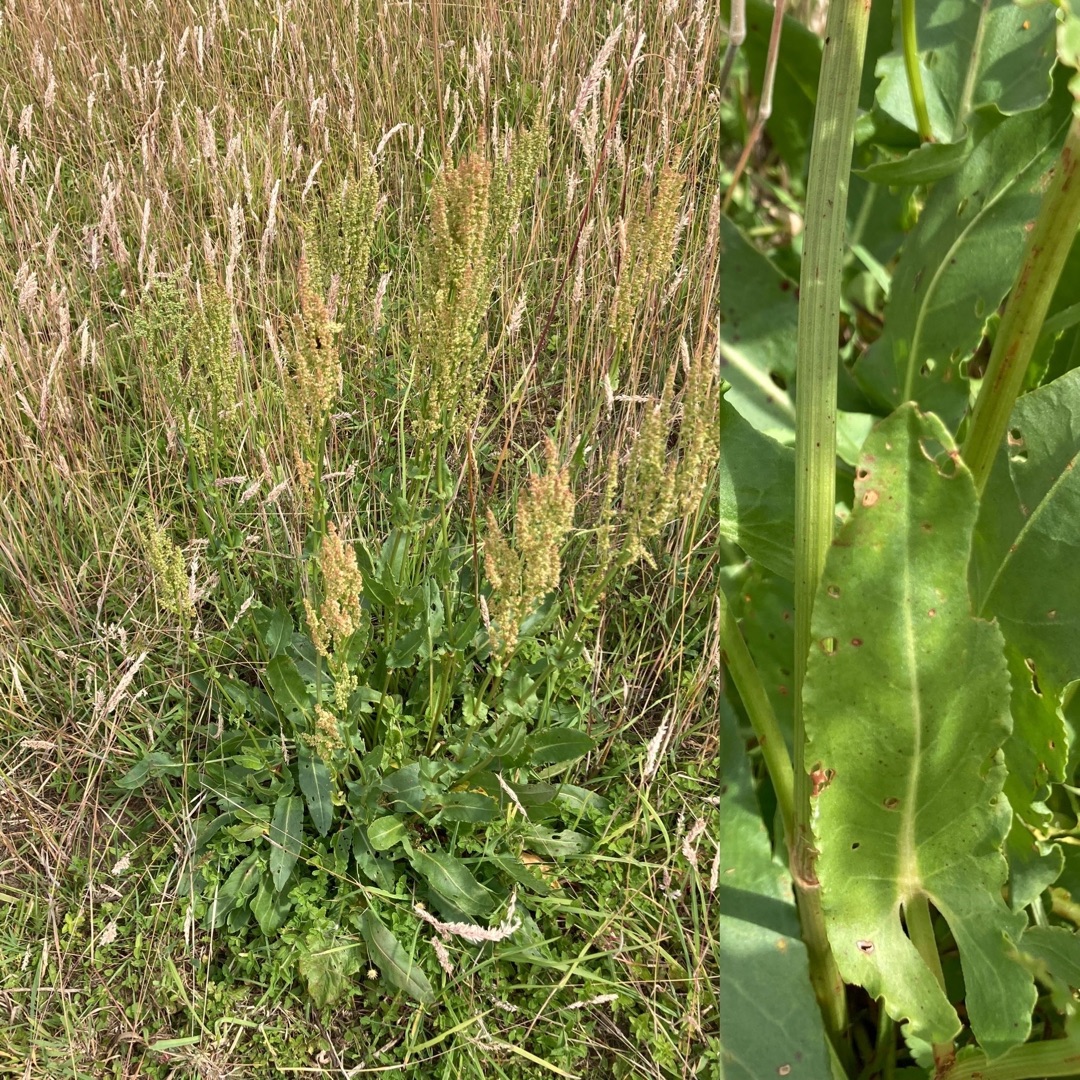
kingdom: Plantae
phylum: Tracheophyta
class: Magnoliopsida
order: Caryophyllales
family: Polygonaceae
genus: Rumex
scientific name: Rumex thyrsiflorus
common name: Dusk-syre
